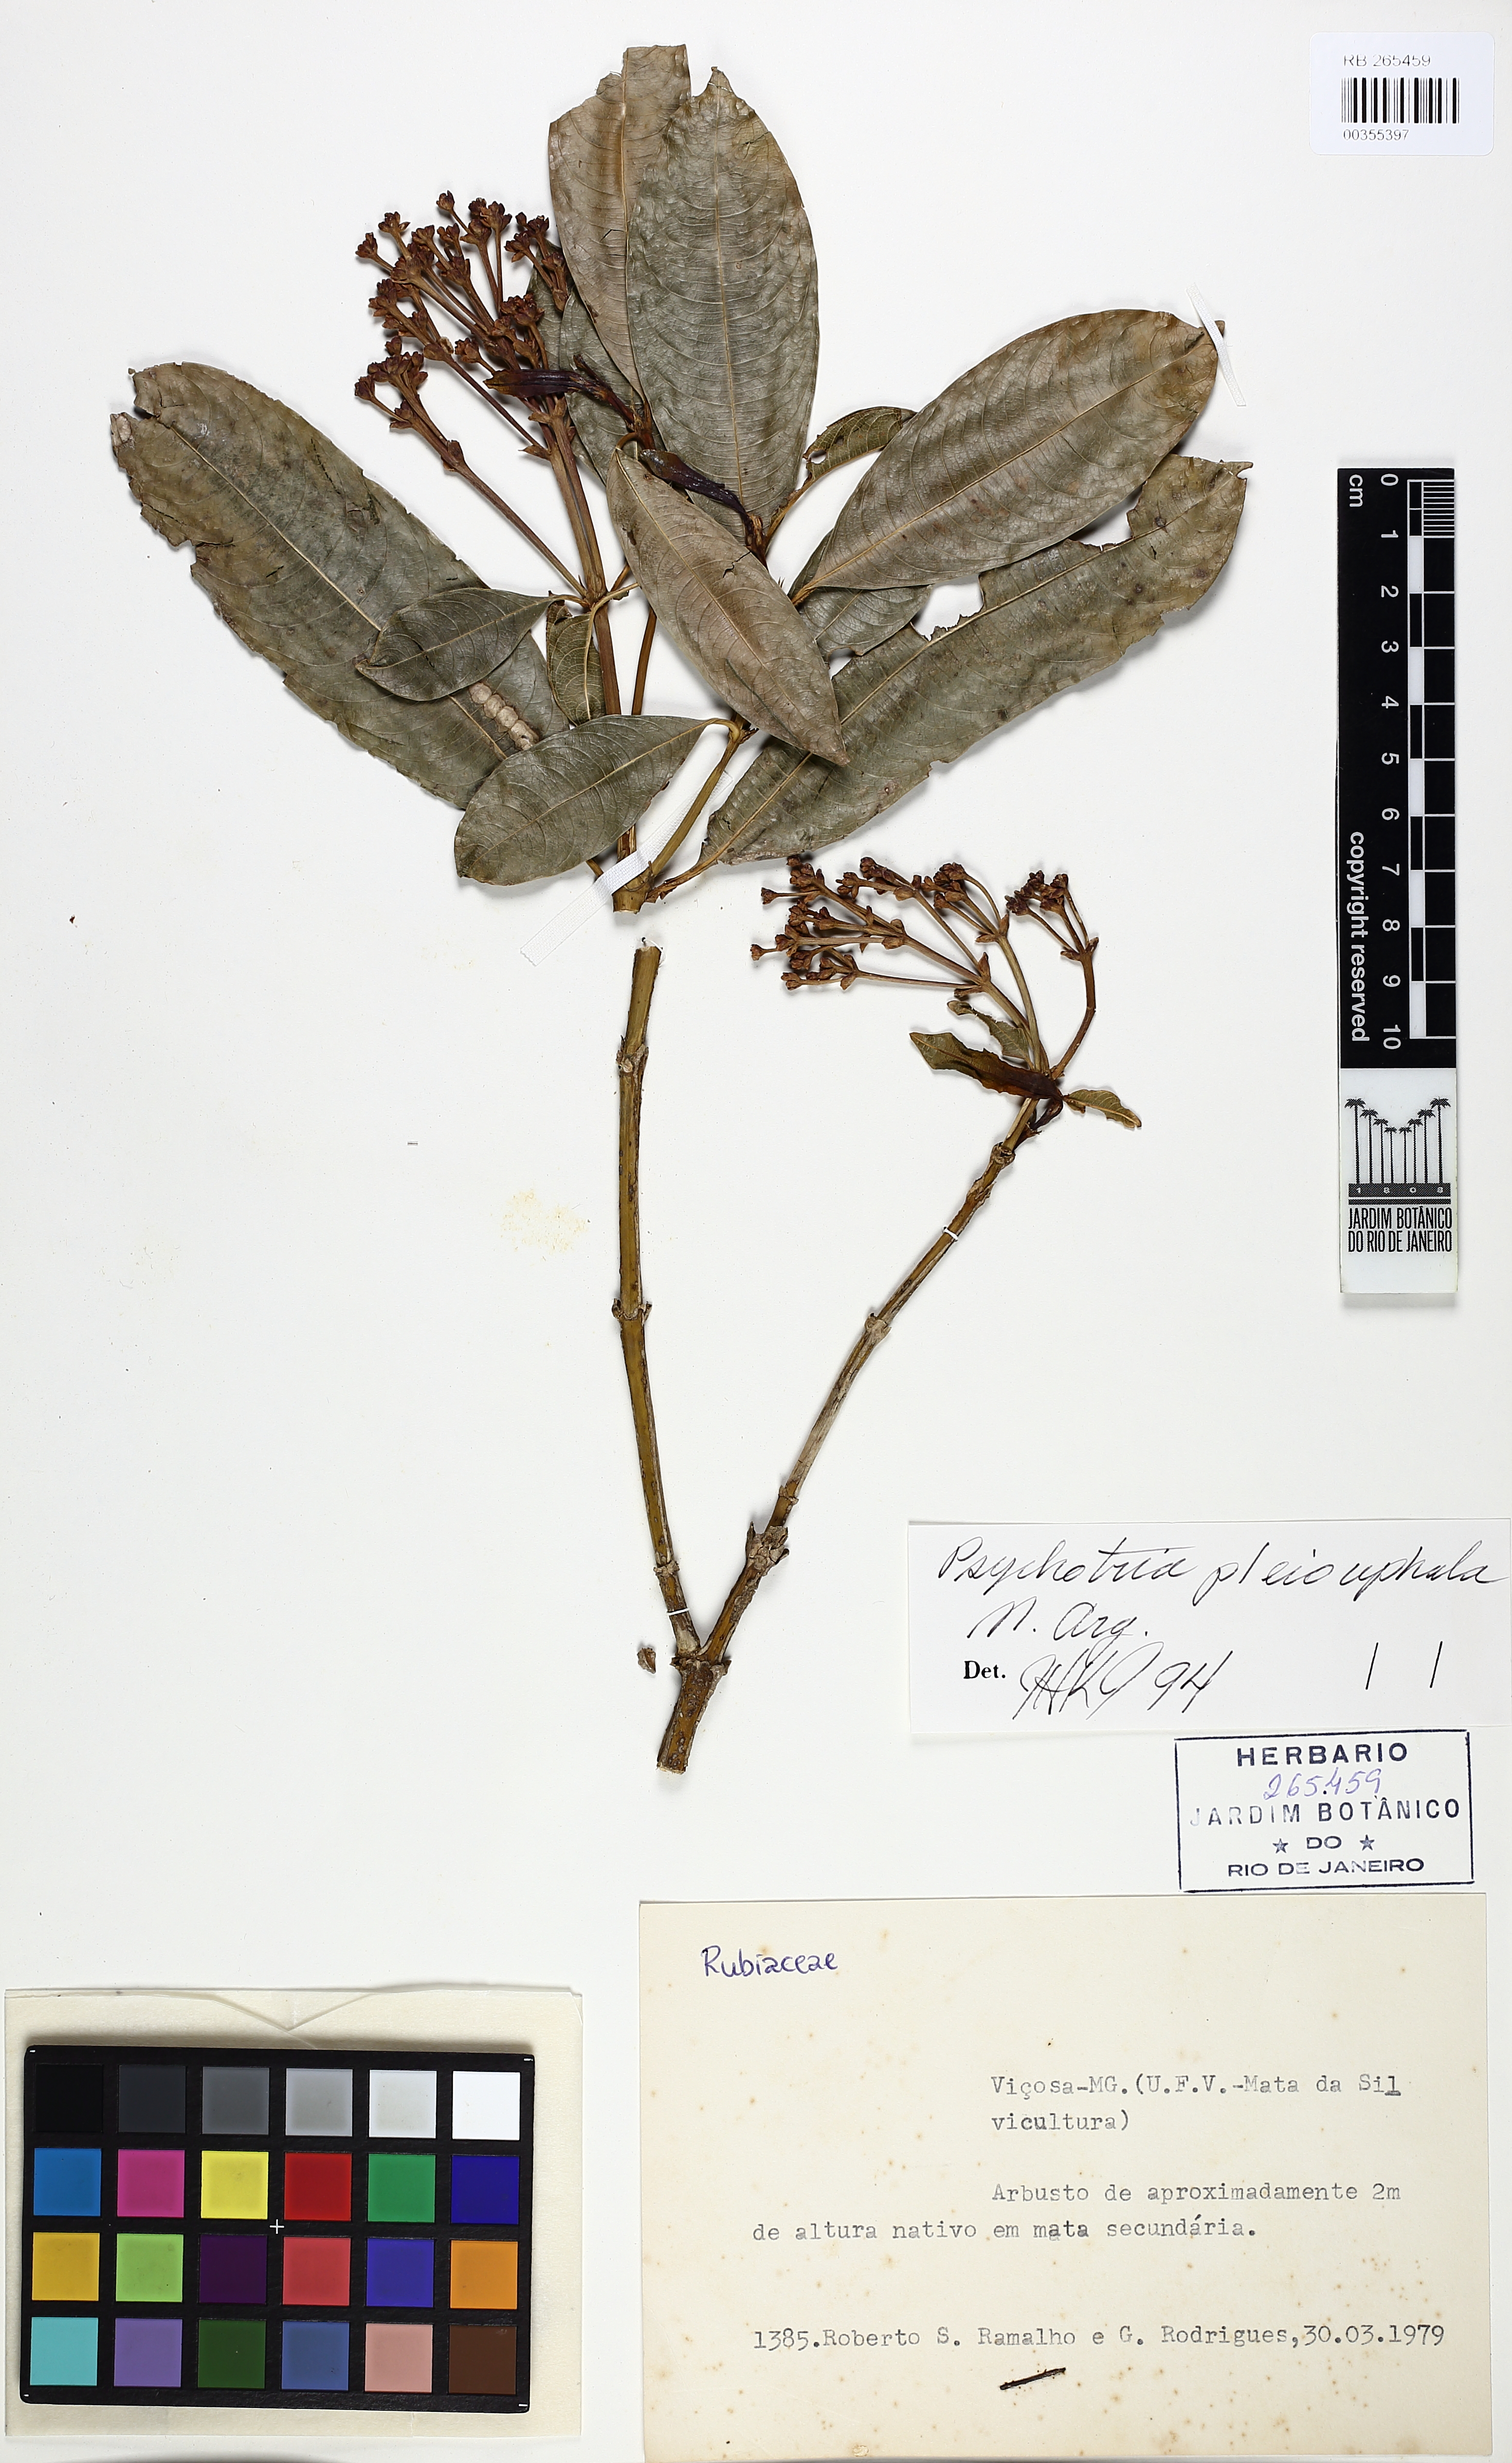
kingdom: Plantae
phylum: Tracheophyta
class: Magnoliopsida
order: Gentianales
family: Rubiaceae
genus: Palicourea
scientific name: Palicourea pleiocephala
